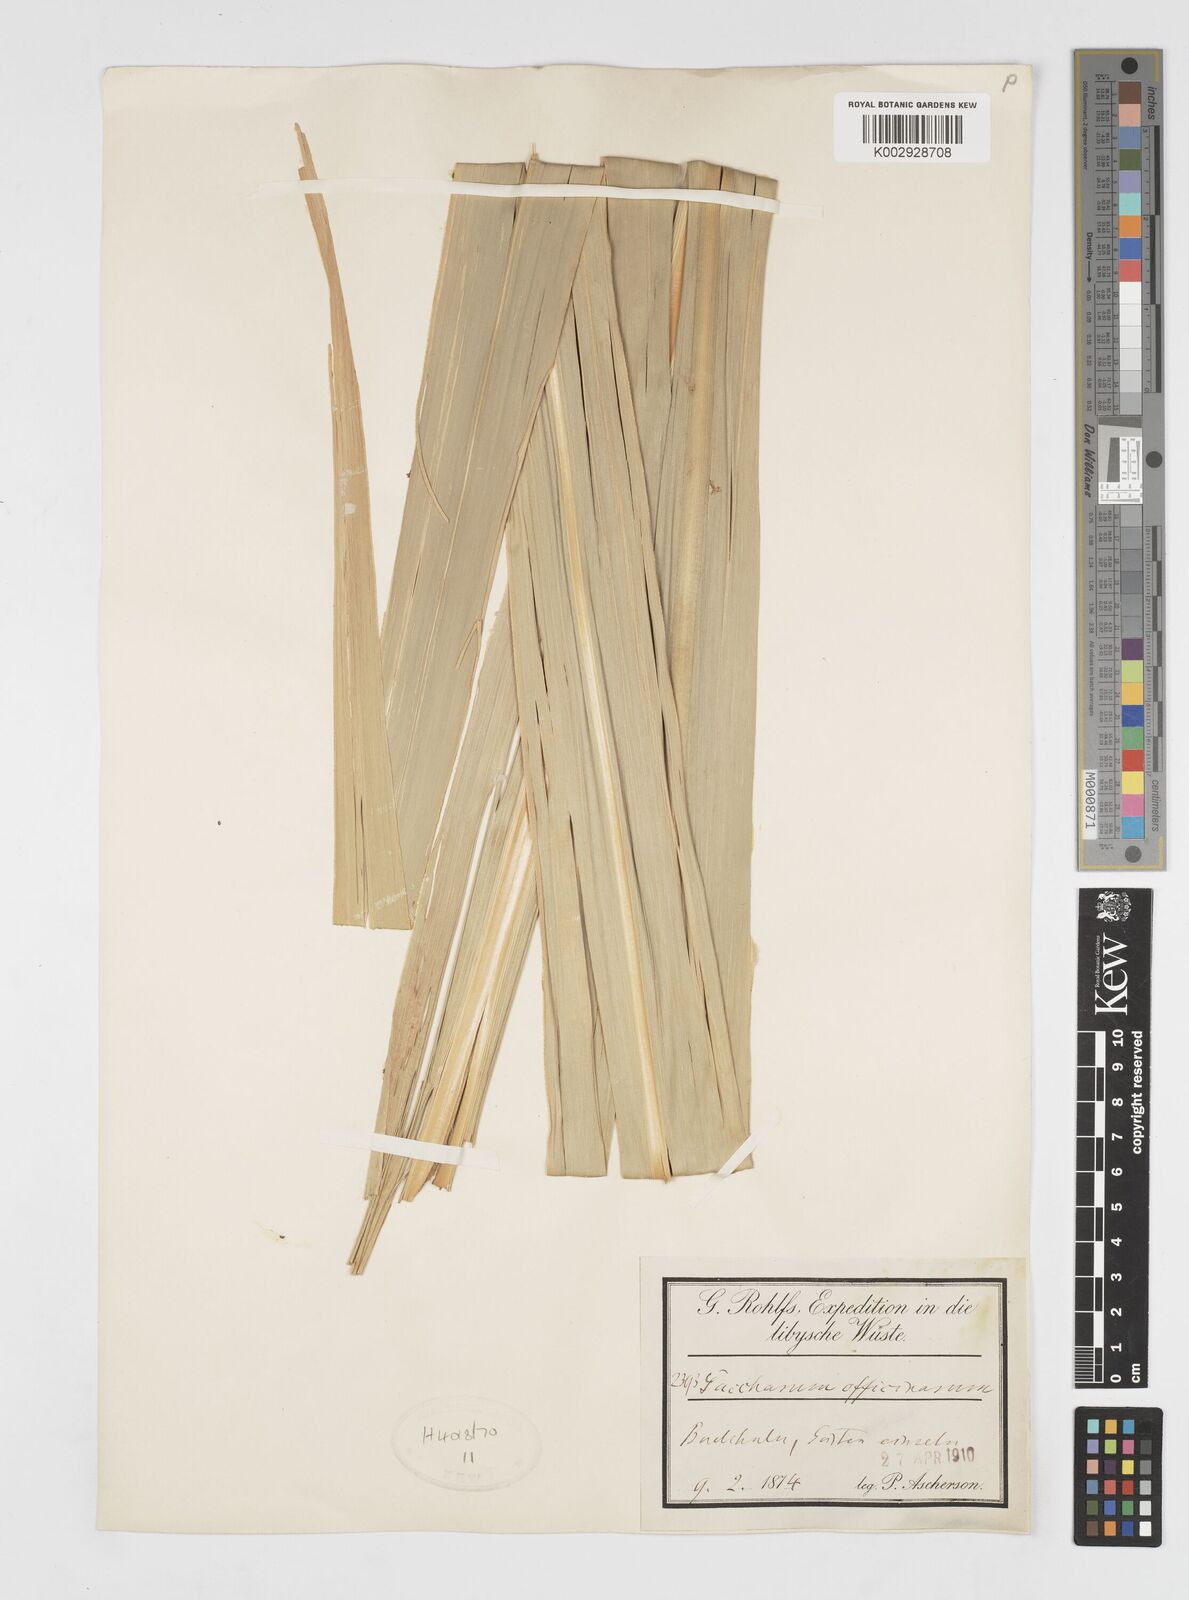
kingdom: Plantae
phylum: Tracheophyta
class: Liliopsida
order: Poales
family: Poaceae
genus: Saccharum
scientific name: Saccharum officinarum
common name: Sugarcane
